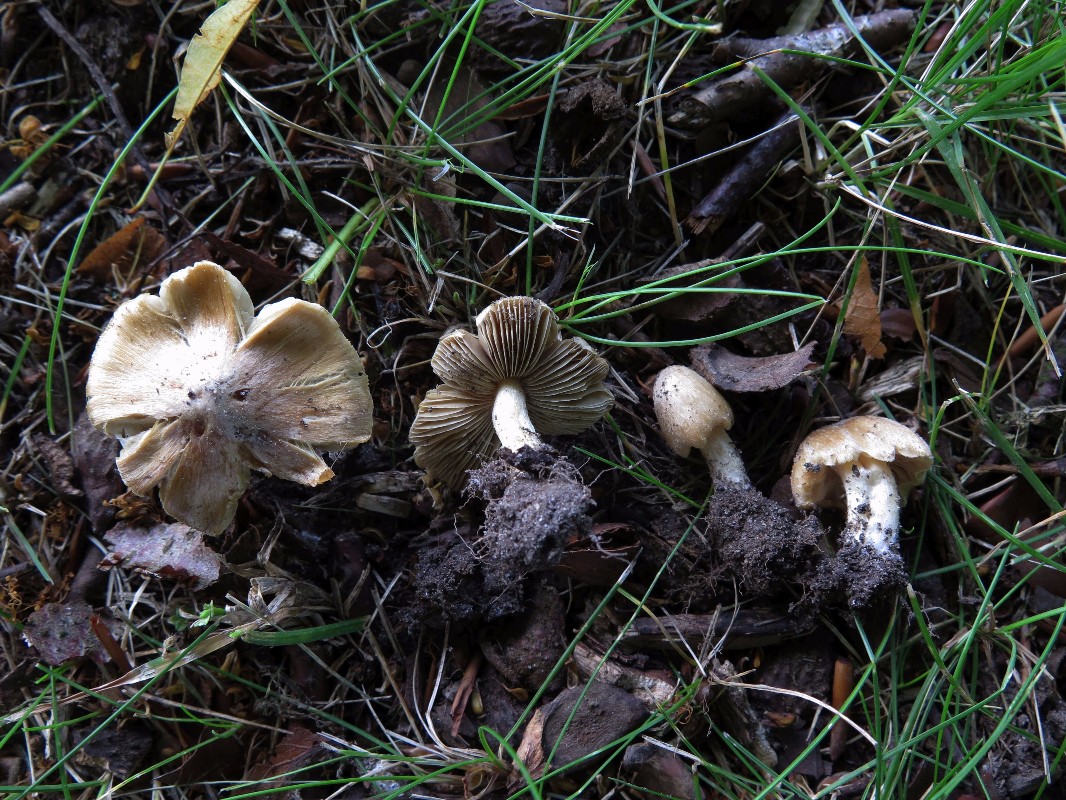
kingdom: Fungi
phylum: Basidiomycota
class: Agaricomycetes
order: Agaricales
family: Inocybaceae
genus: Pseudosperma
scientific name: Pseudosperma
